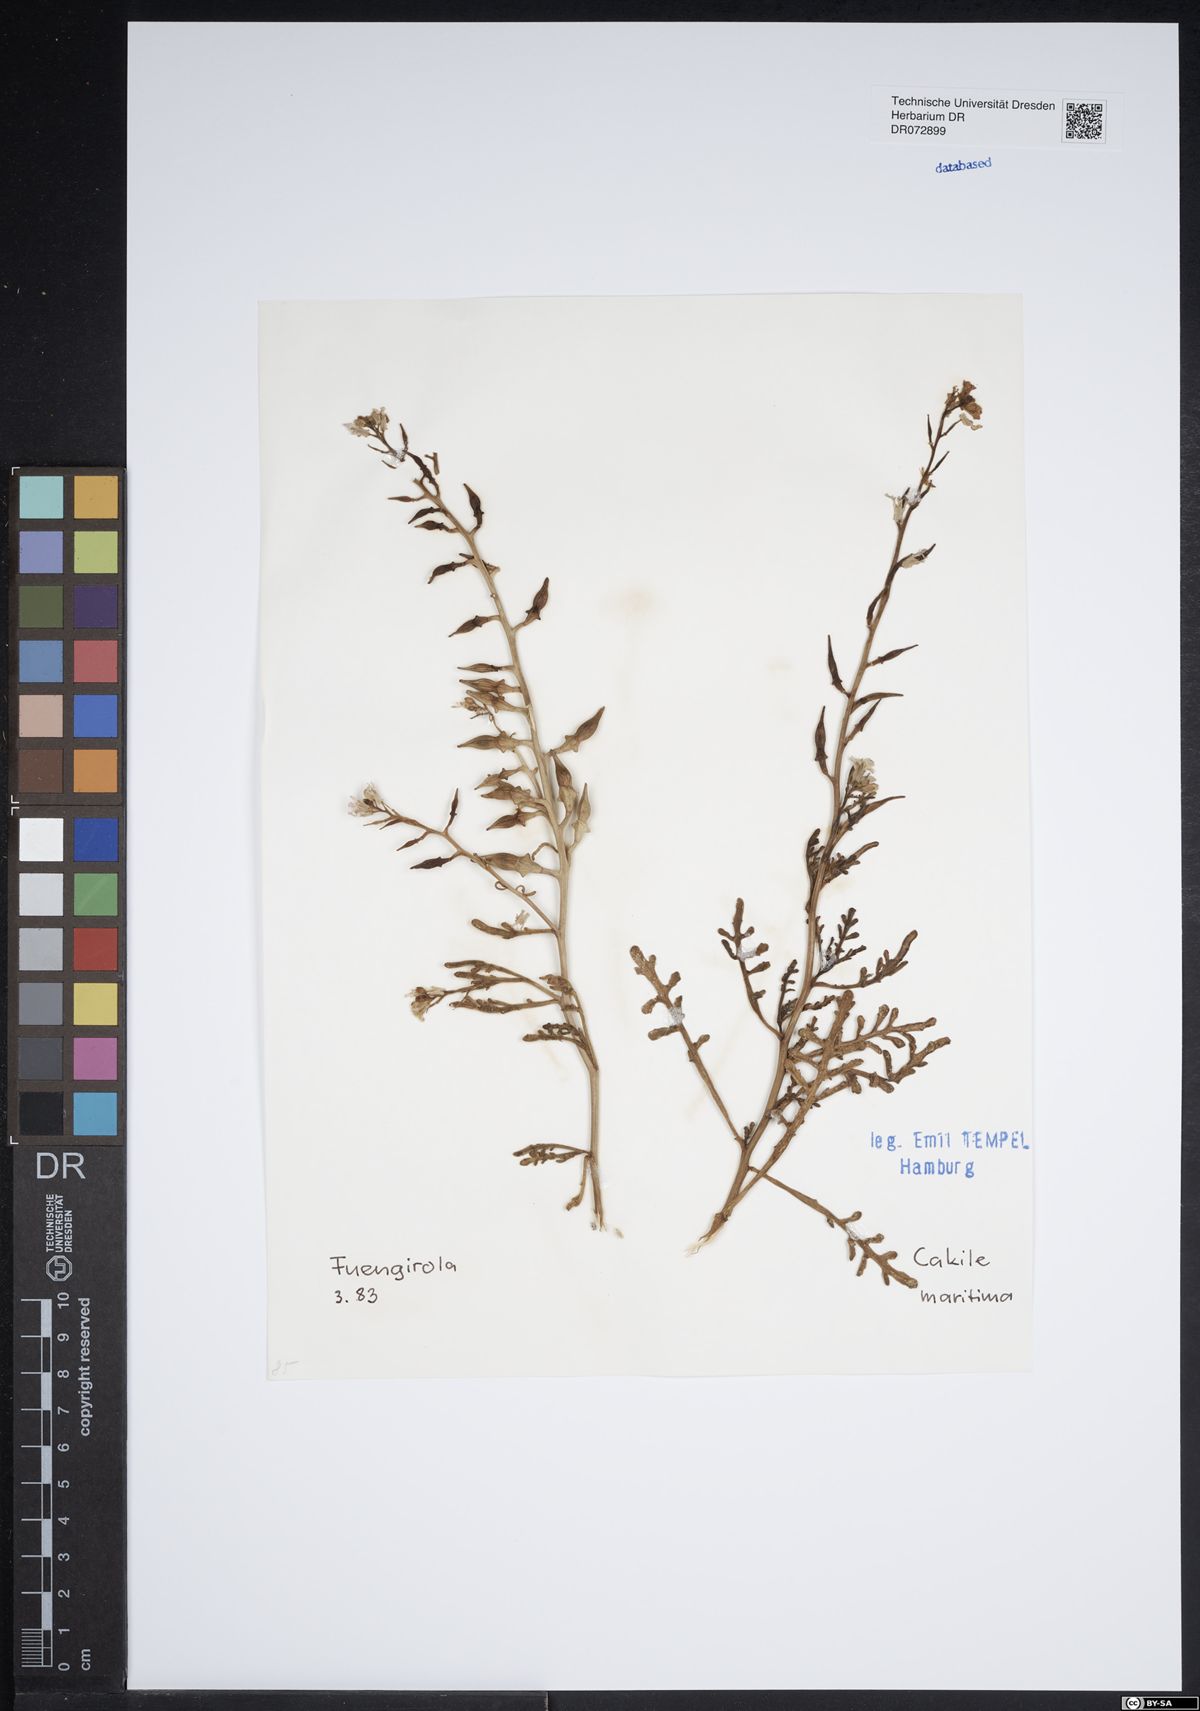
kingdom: Plantae
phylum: Tracheophyta
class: Magnoliopsida
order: Brassicales
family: Brassicaceae
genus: Cakile
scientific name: Cakile maritima
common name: Sea rocket
